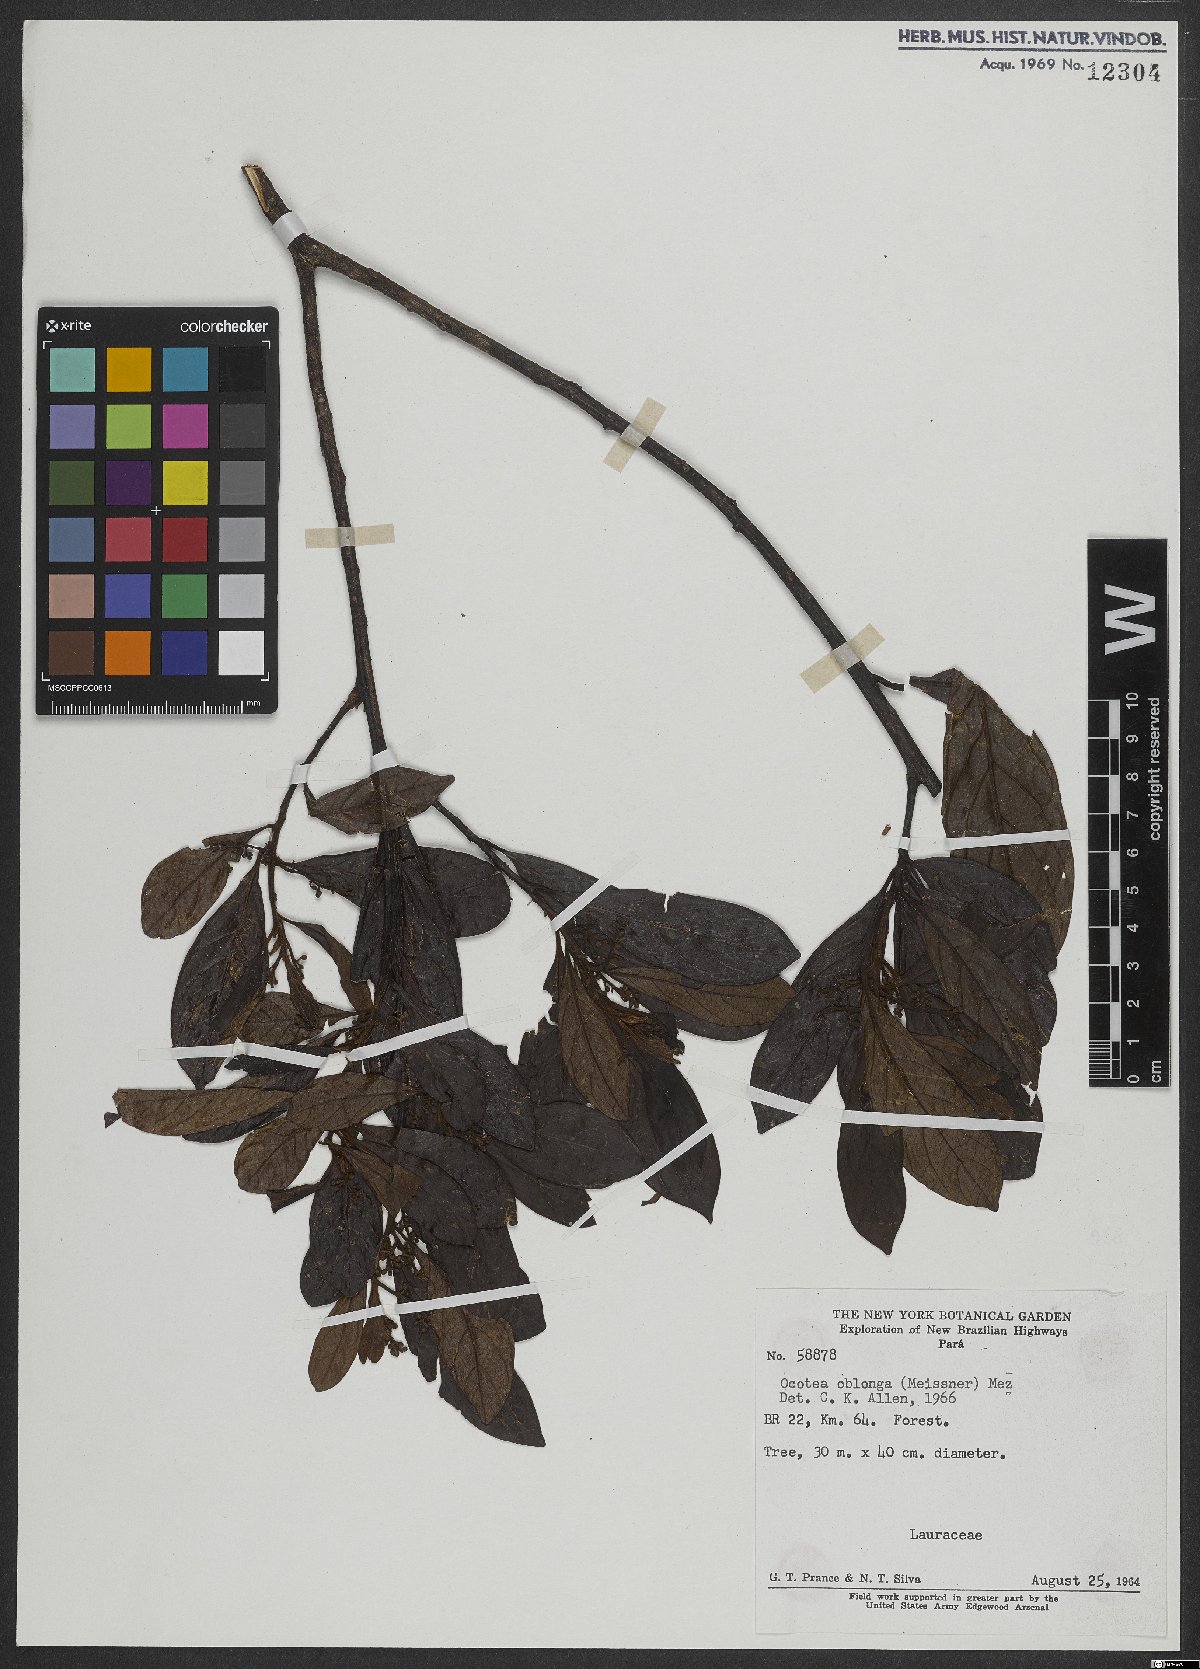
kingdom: Plantae
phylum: Tracheophyta
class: Magnoliopsida
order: Laurales
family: Lauraceae
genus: Ocotea
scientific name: Ocotea oblonga
